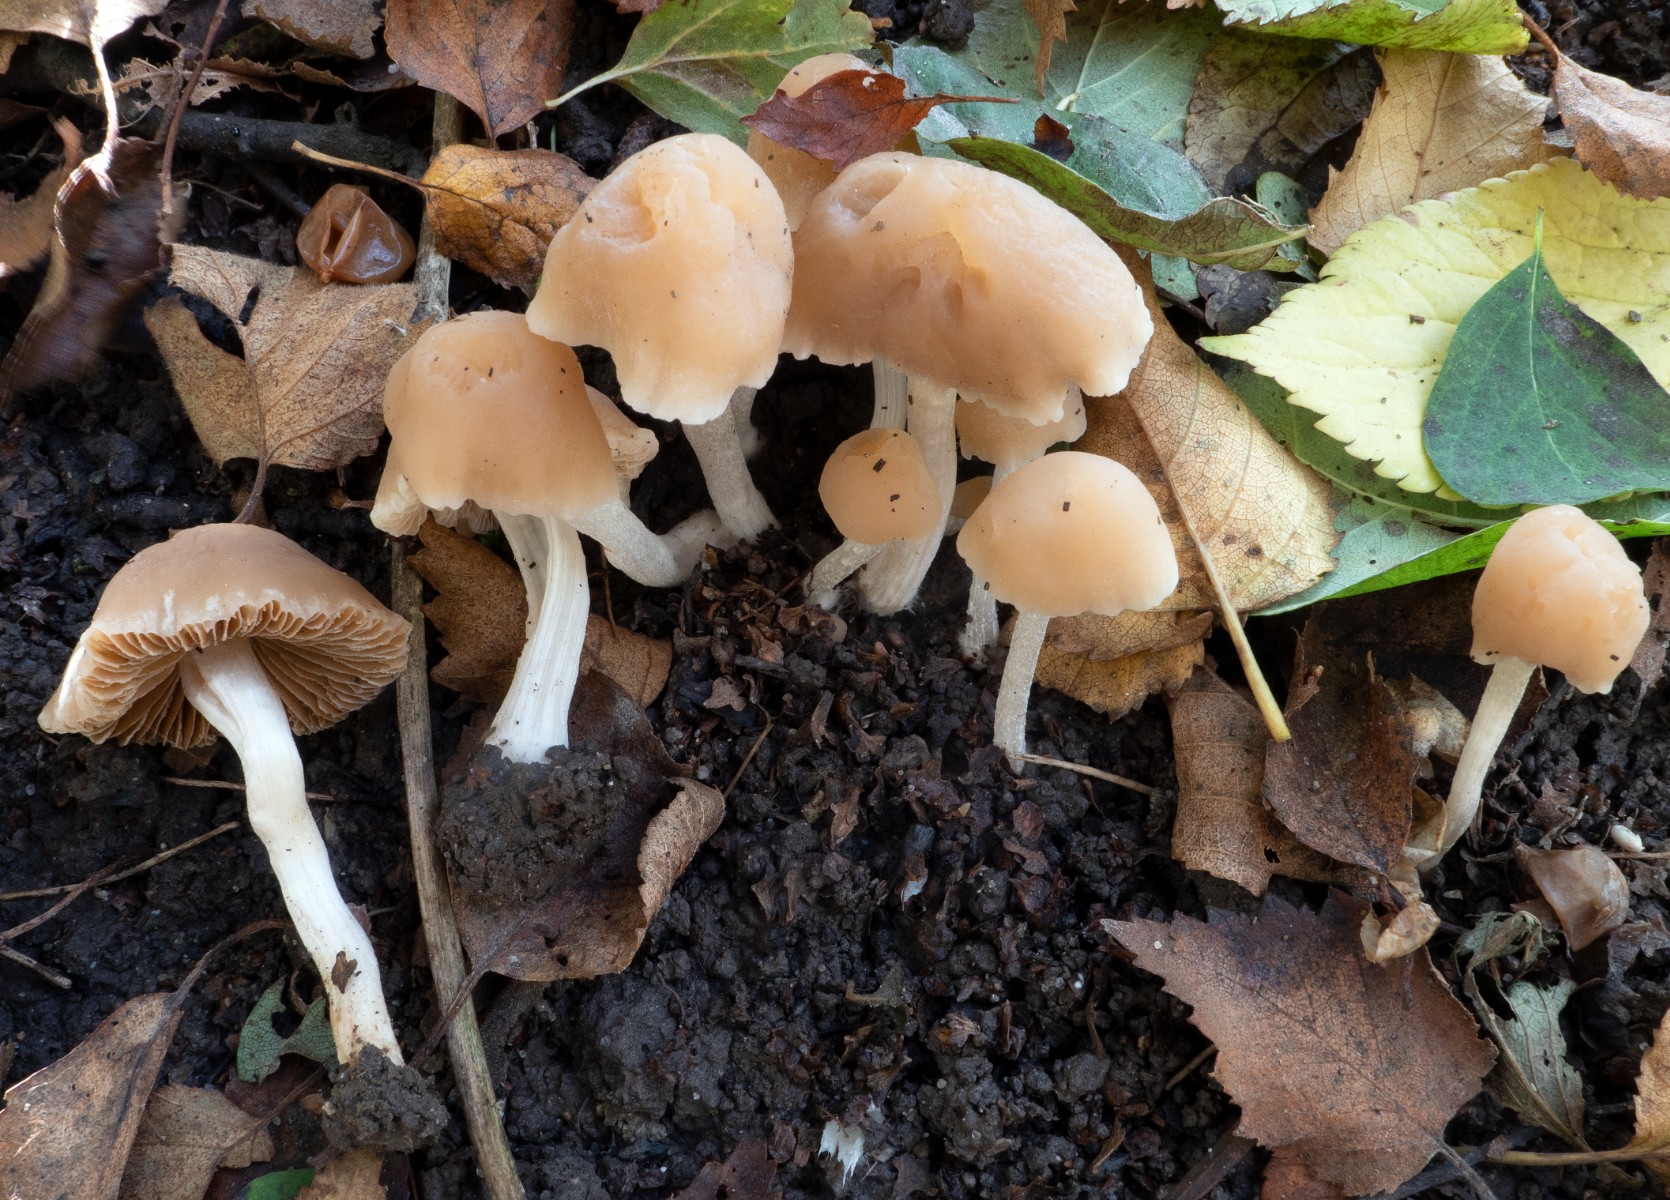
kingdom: Fungi
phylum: Basidiomycota
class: Agaricomycetes
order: Agaricales
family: Bolbitiaceae
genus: Conocybe
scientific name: Conocybe pygmaeoaffinis
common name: bleg dansehat
